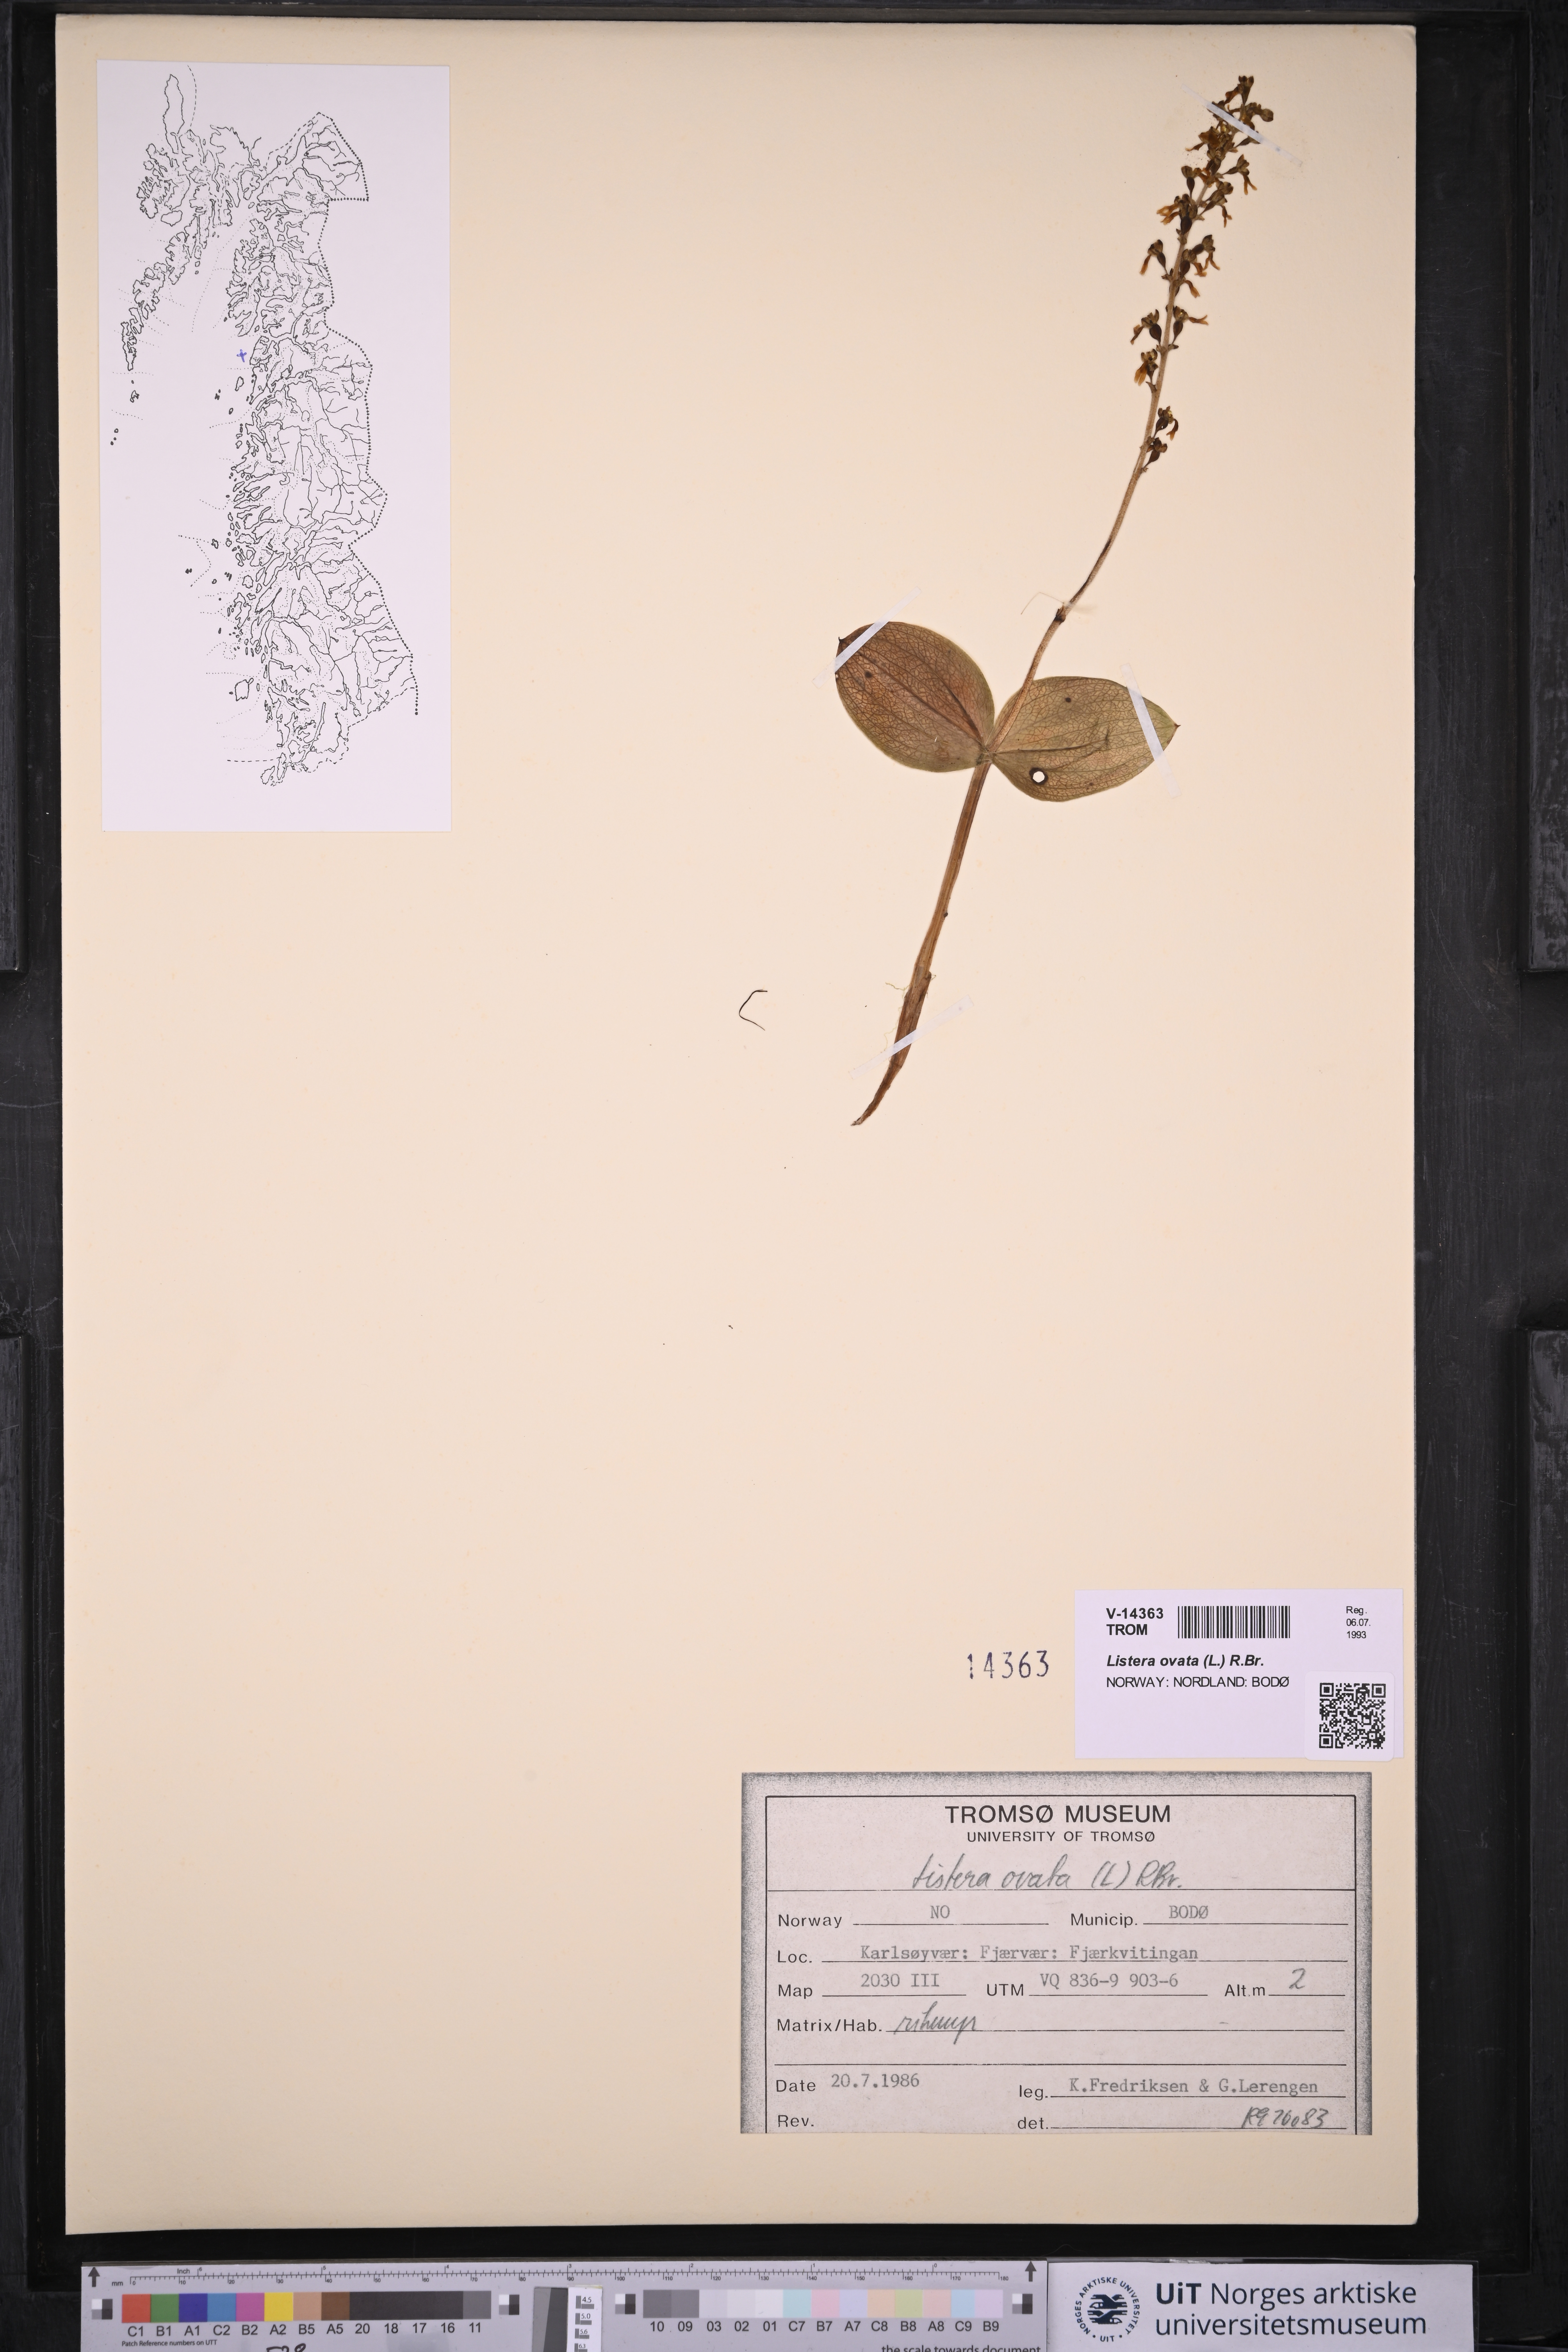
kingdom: Plantae
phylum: Tracheophyta
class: Liliopsida
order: Asparagales
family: Orchidaceae
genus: Neottia
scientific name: Neottia ovata
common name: Common twayblade
